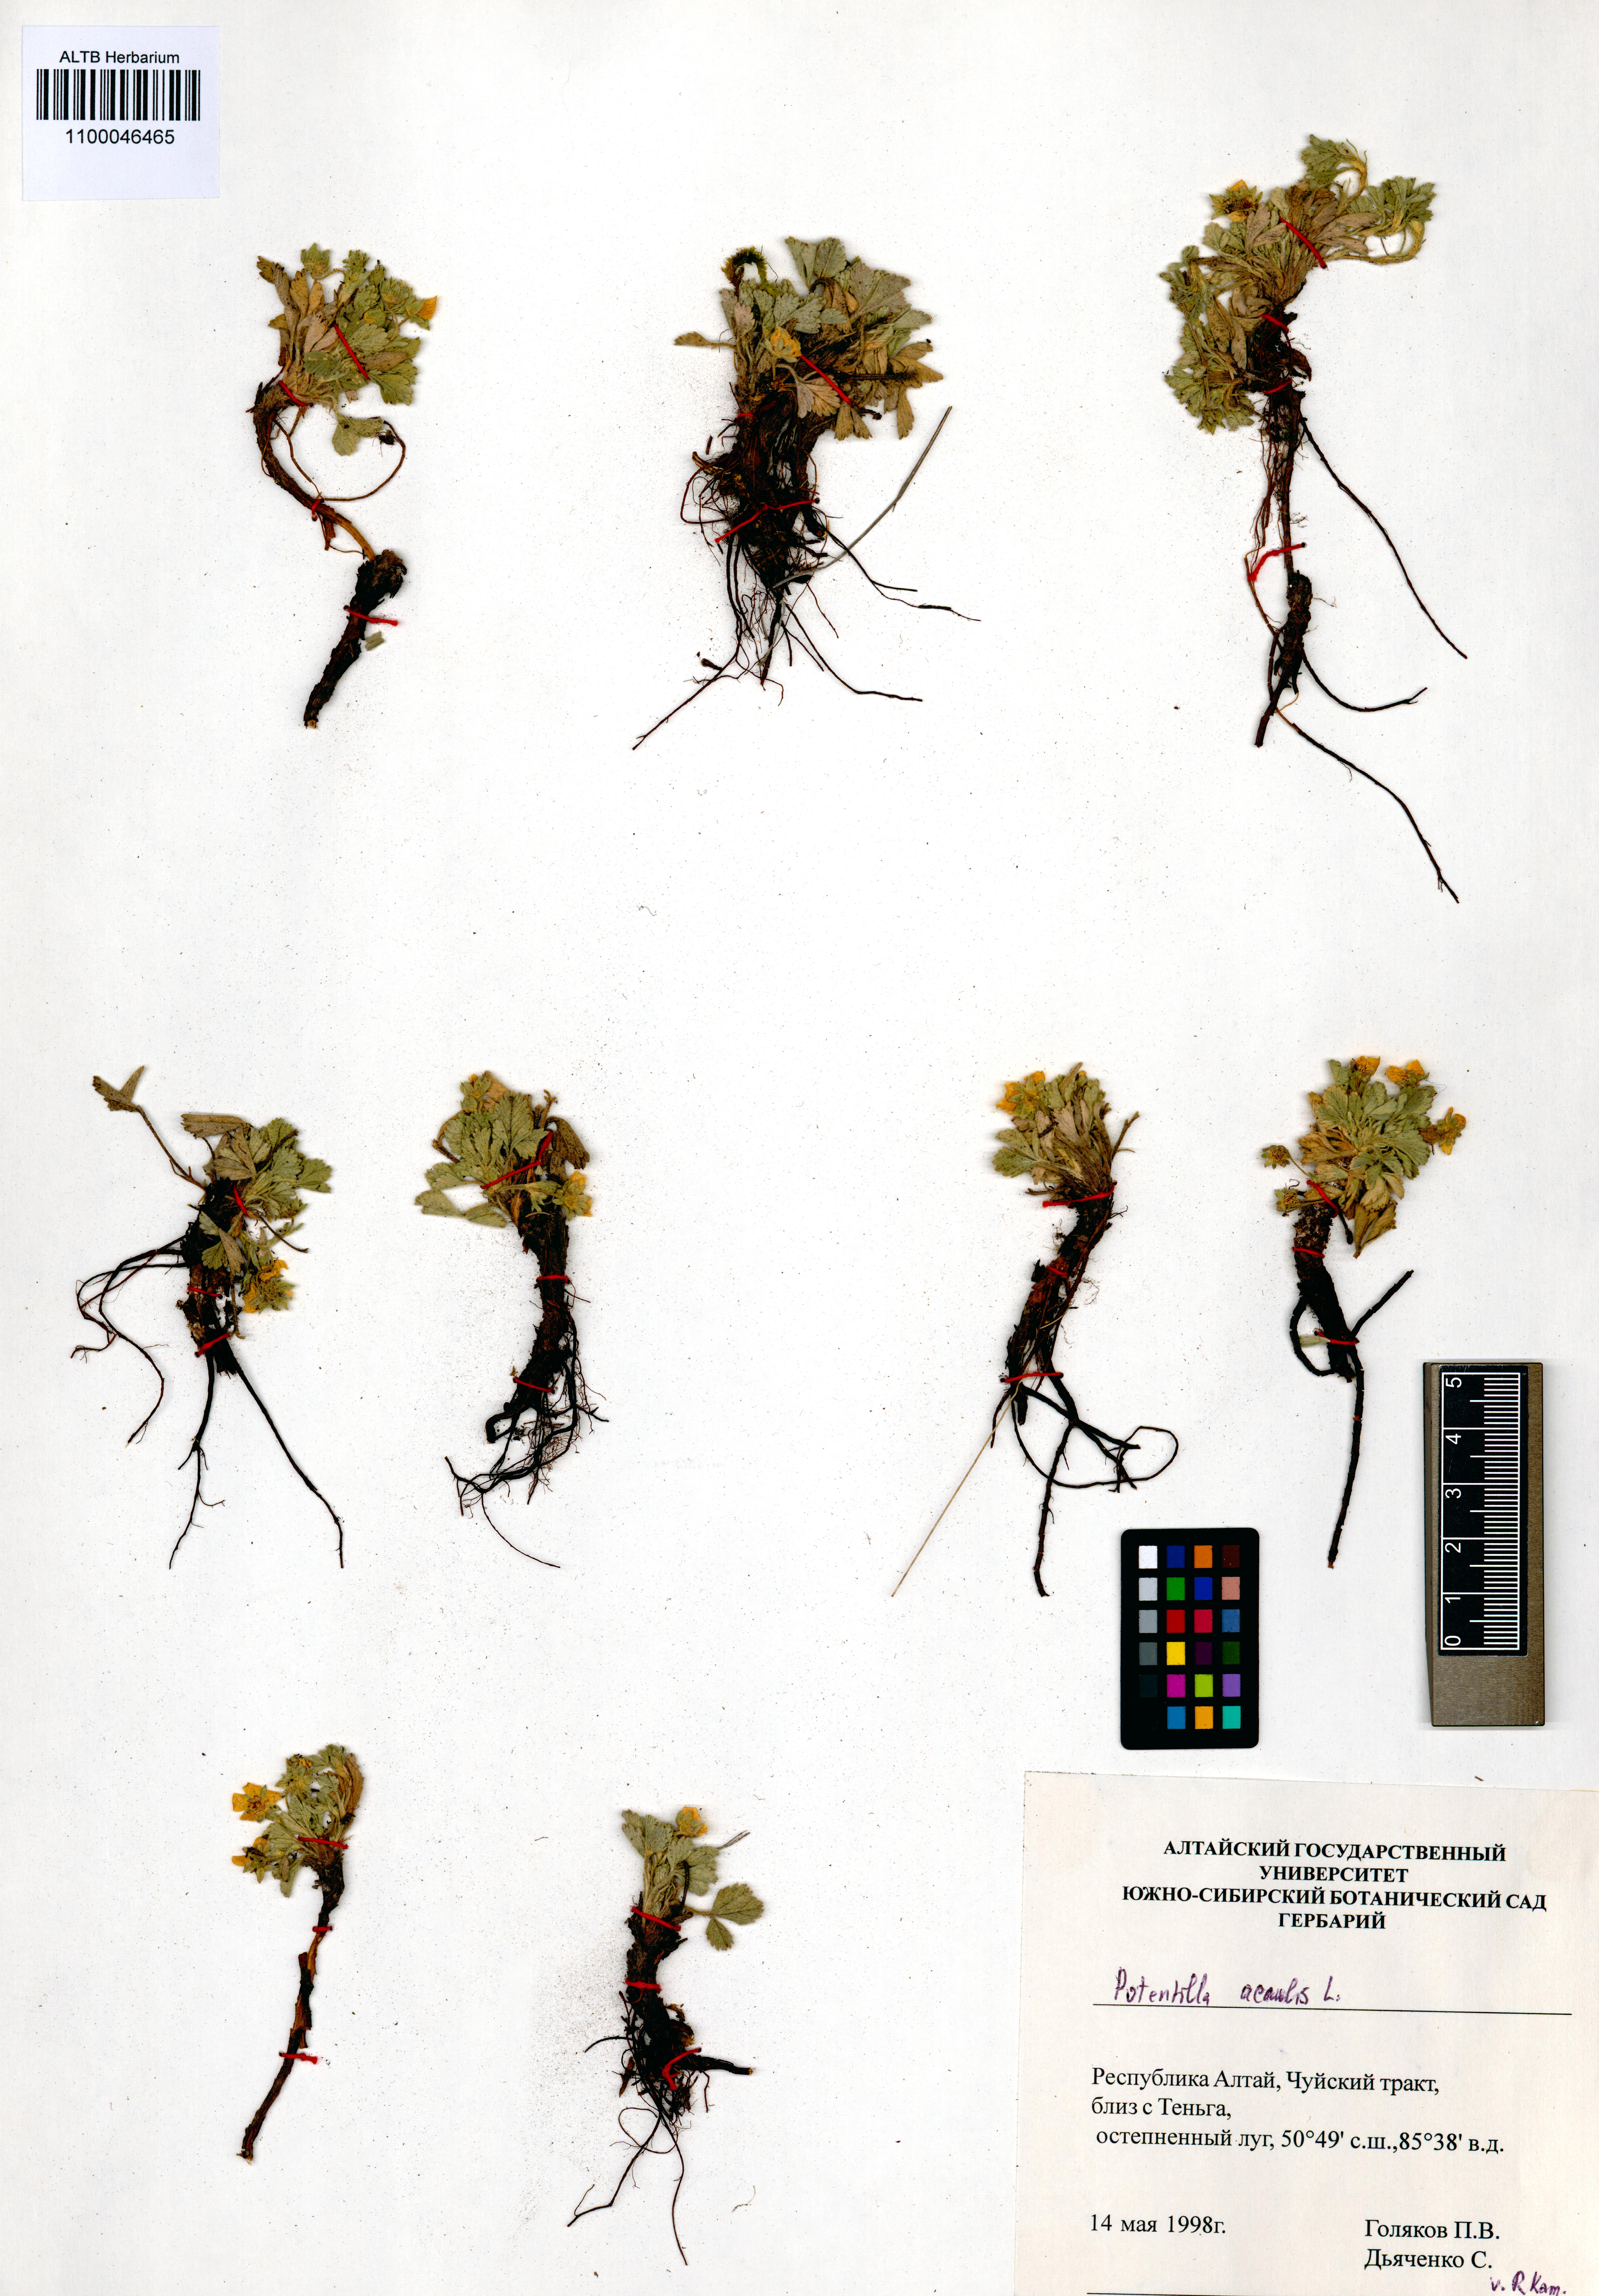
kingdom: Plantae
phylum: Tracheophyta
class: Magnoliopsida
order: Rosales
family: Rosaceae
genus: Potentilla
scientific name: Potentilla acaulis
